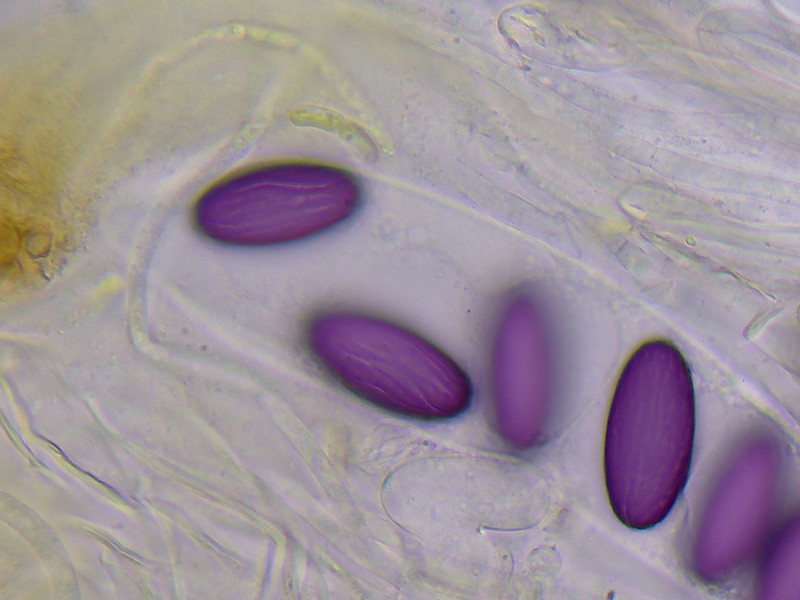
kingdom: Fungi
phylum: Ascomycota
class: Pezizomycetes
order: Pezizales
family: Ascobolaceae
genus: Ascobolus
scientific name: Ascobolus furfuraceus
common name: almindelig prikbæger
